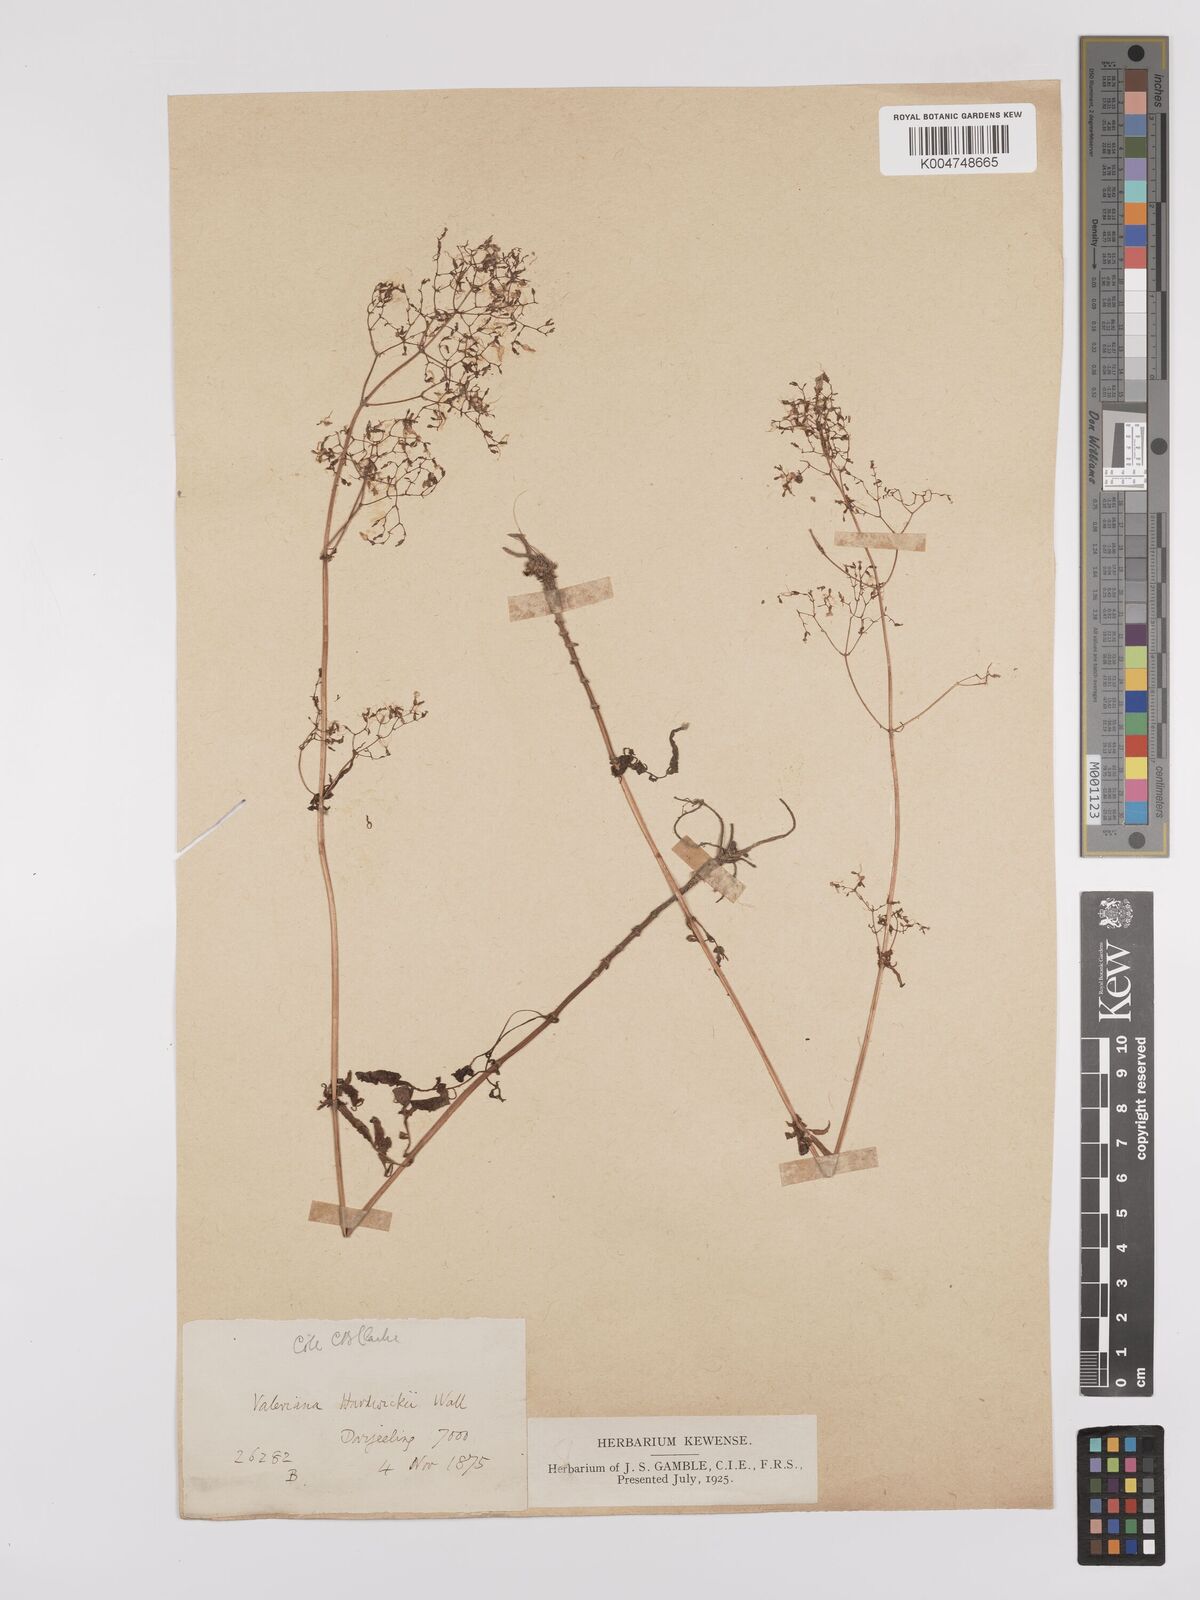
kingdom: Plantae
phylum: Tracheophyta
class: Magnoliopsida
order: Dipsacales
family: Caprifoliaceae
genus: Valeriana
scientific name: Valeriana hardwickei
